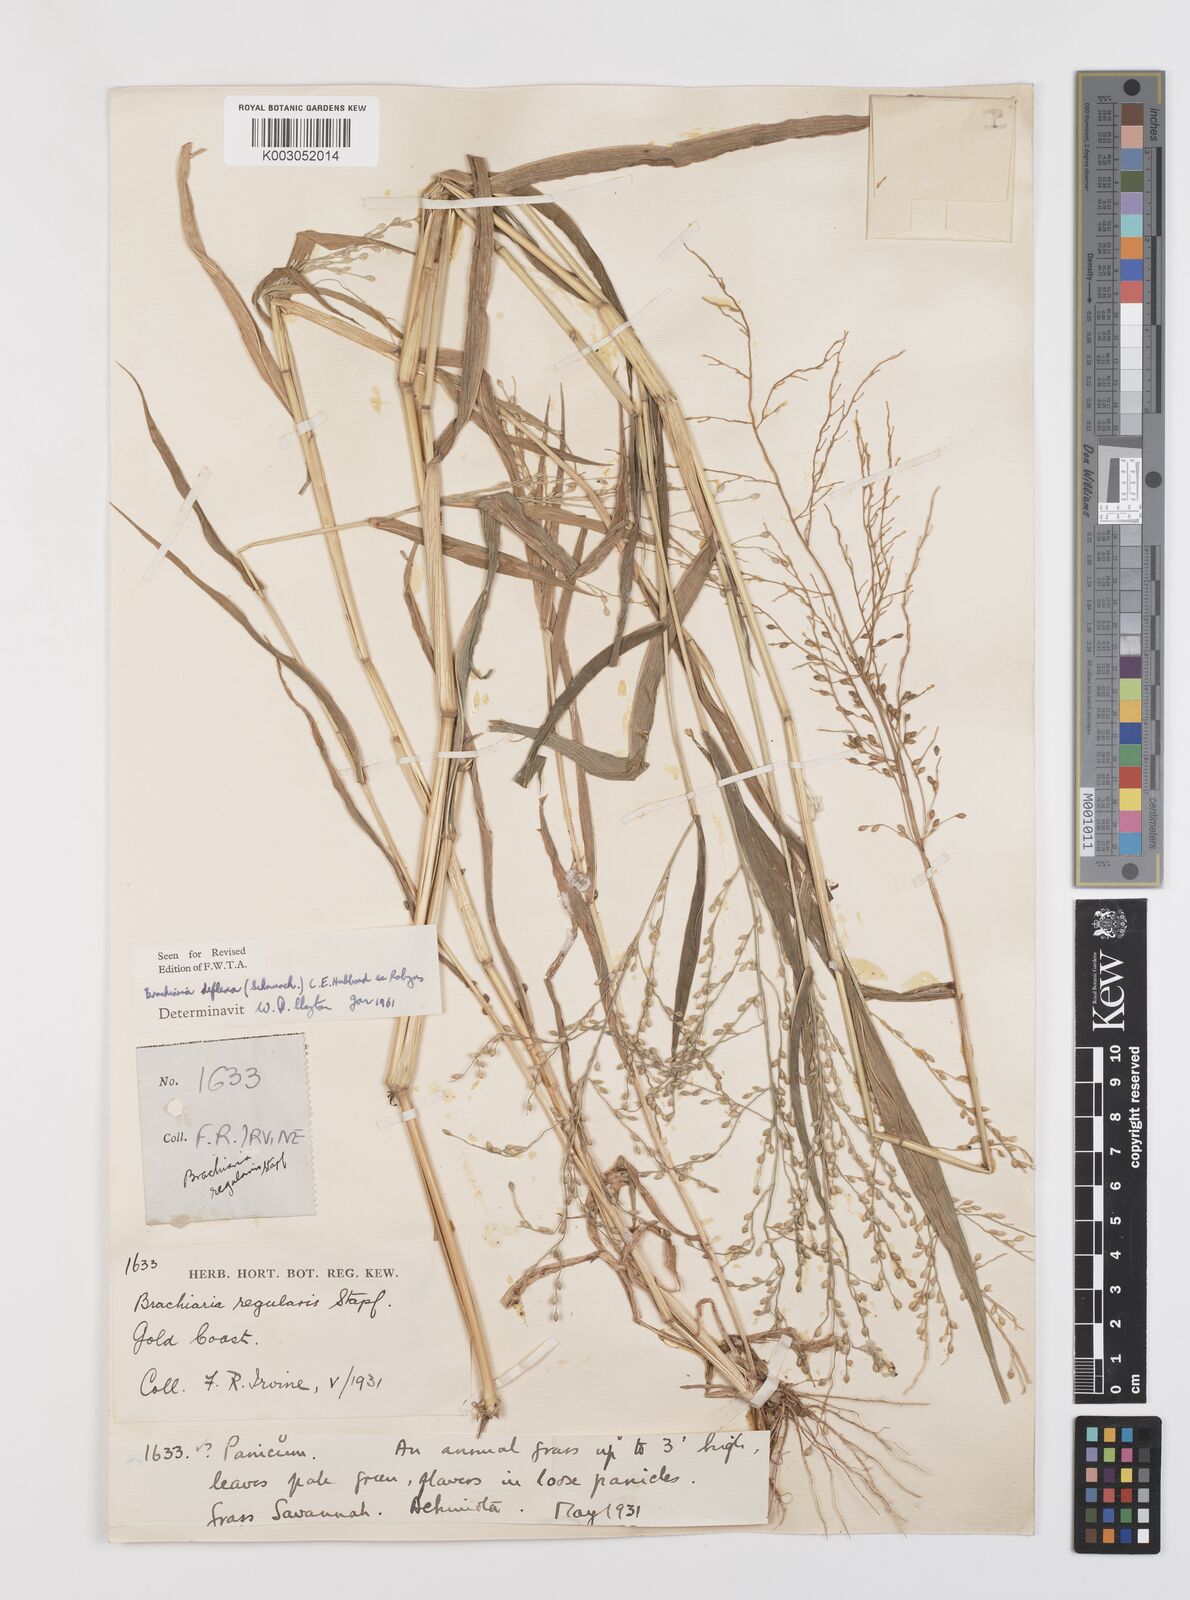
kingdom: Plantae
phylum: Tracheophyta
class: Liliopsida
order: Poales
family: Poaceae
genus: Urochloa
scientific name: Urochloa deflexa
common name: Guinea millet
